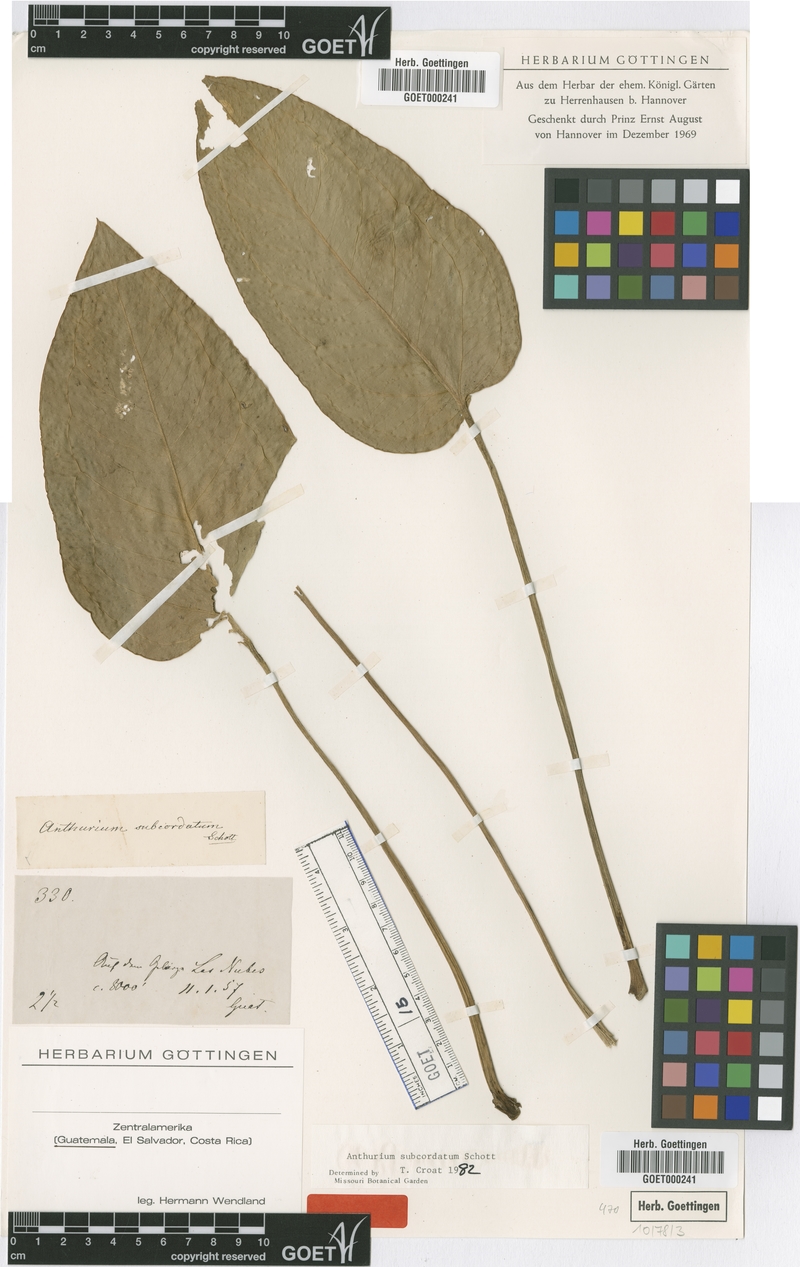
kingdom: Plantae
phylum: Tracheophyta
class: Liliopsida
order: Alismatales
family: Araceae
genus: Anthurium
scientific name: Anthurium subcordatum
